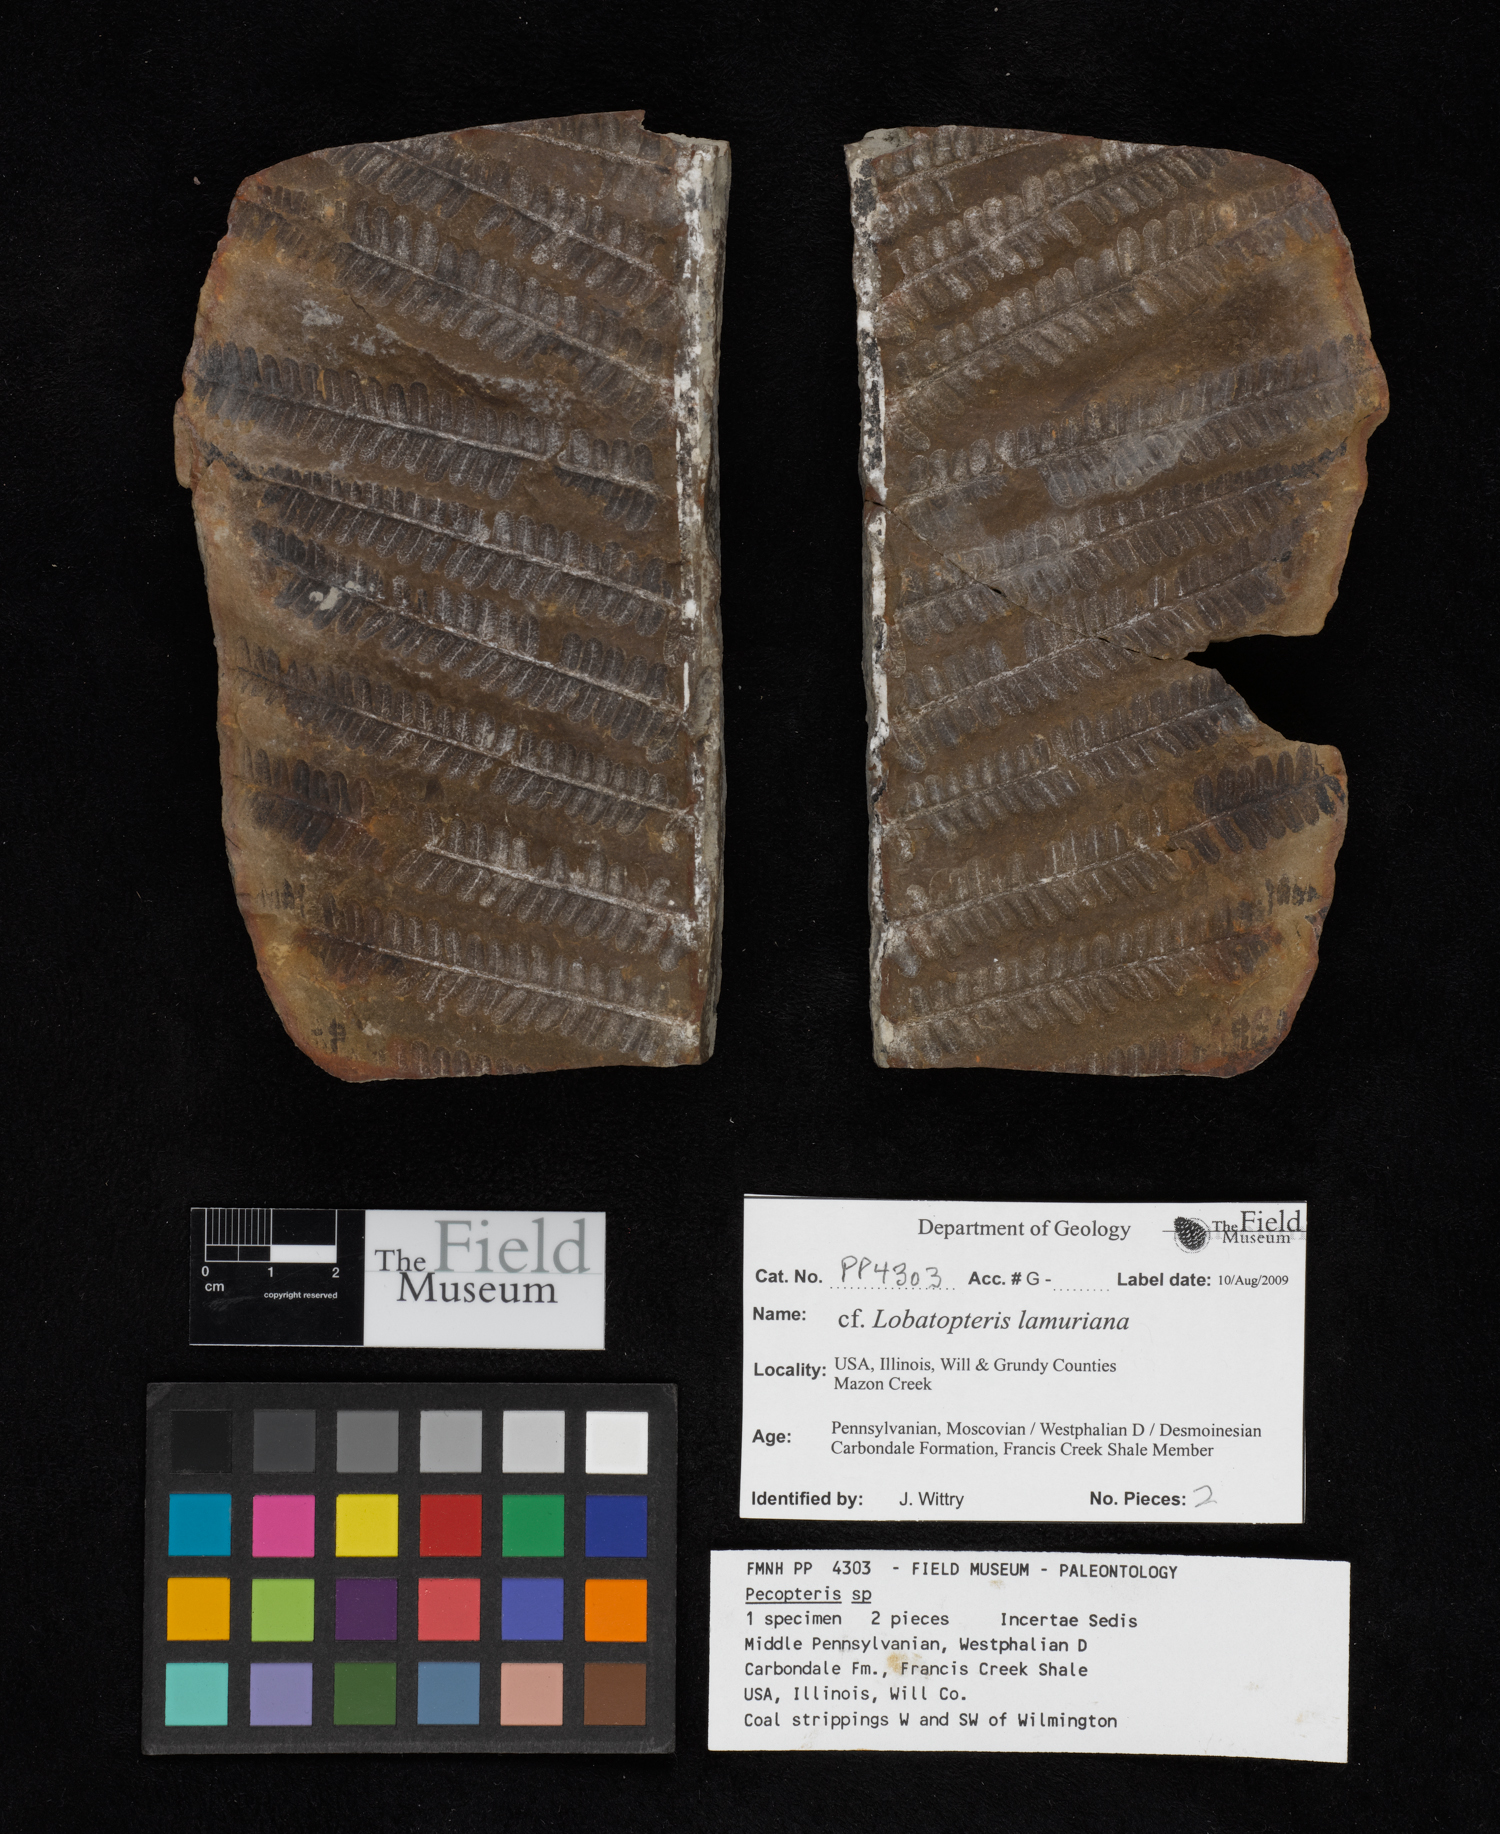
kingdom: Plantae
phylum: Tracheophyta
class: Polypodiopsida
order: Marattiales
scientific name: Marattiales
